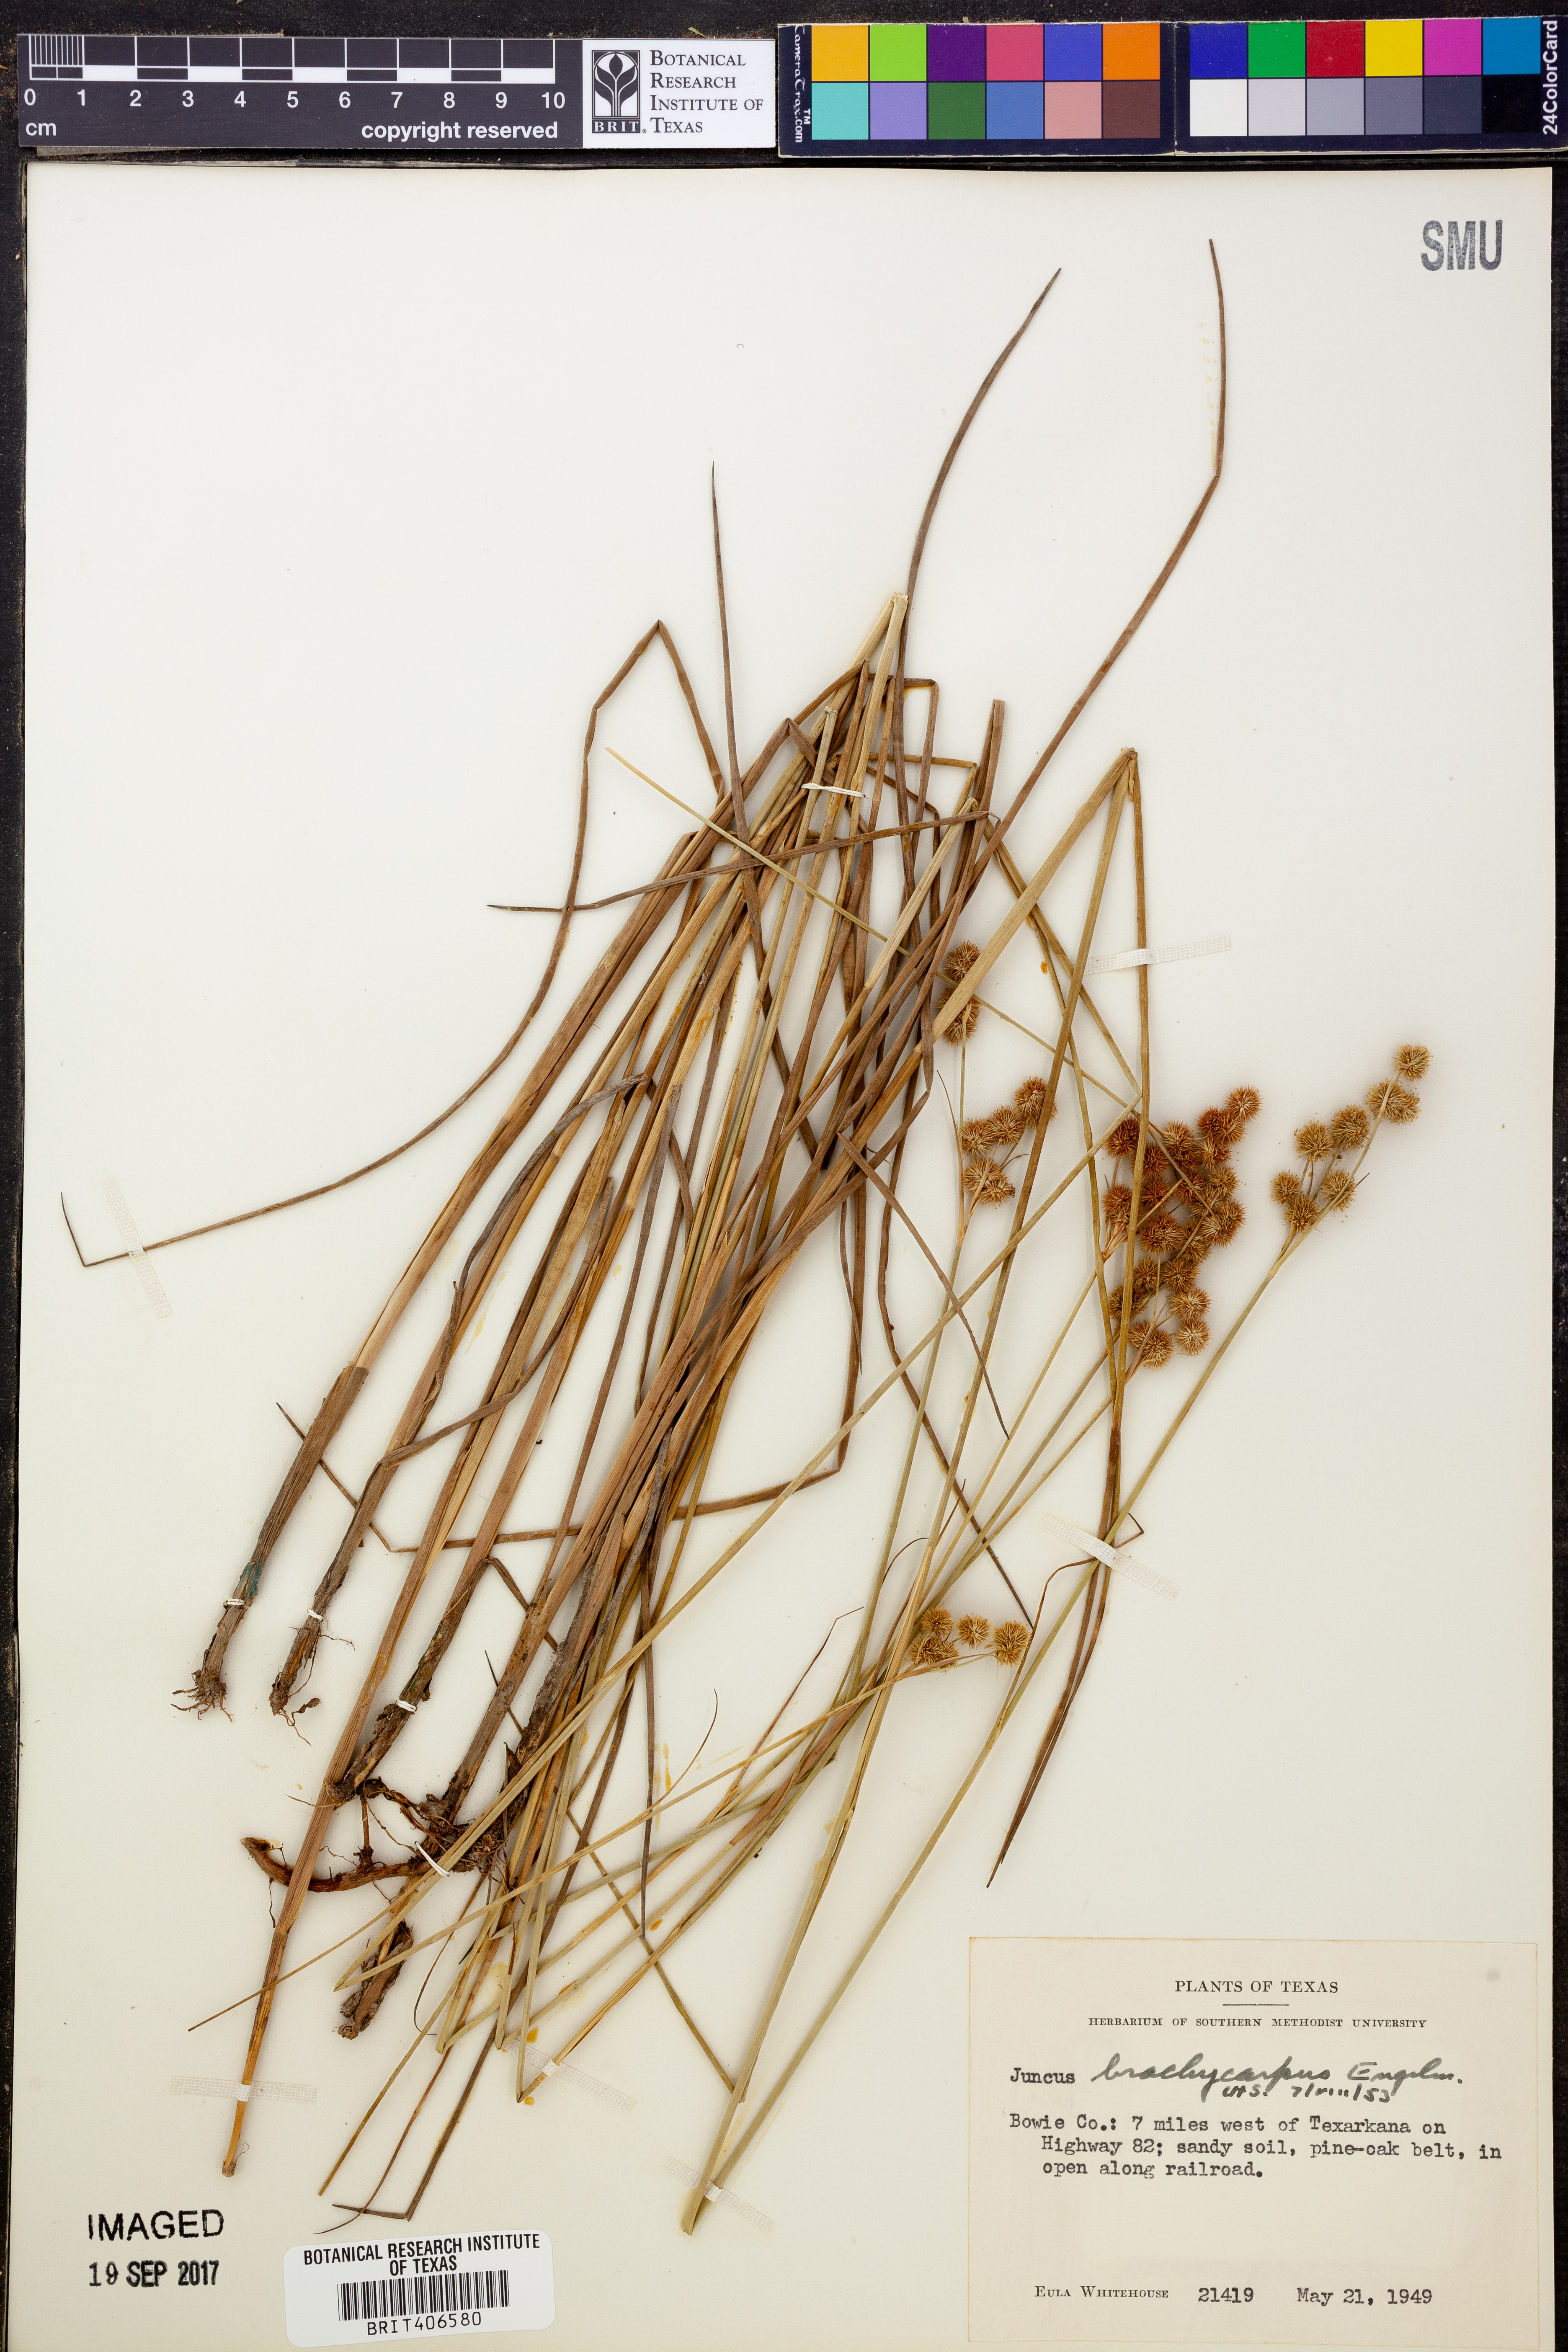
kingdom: Plantae
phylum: Tracheophyta
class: Liliopsida
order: Poales
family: Juncaceae
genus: Juncus
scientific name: Juncus brachycarpus
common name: Shore rush
